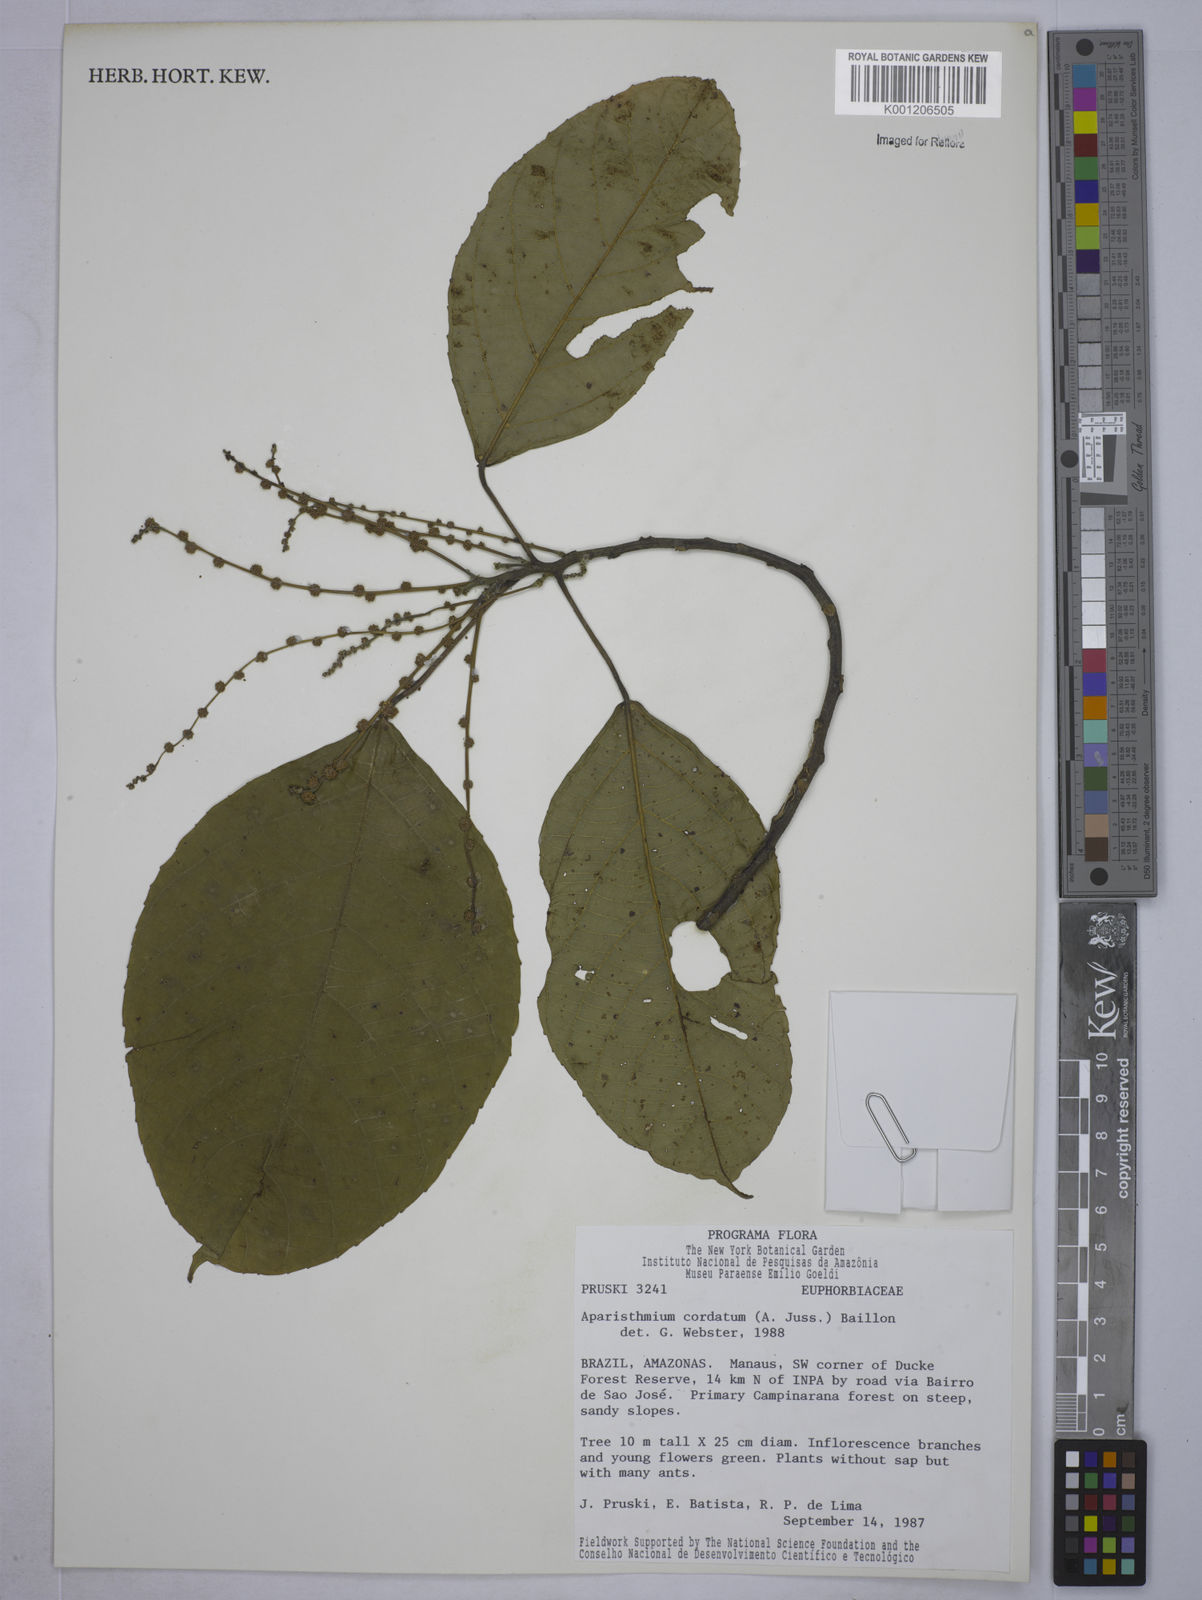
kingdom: Plantae
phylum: Tracheophyta
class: Magnoliopsida
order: Malpighiales
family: Euphorbiaceae
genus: Aparisthmium
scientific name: Aparisthmium cordatum
